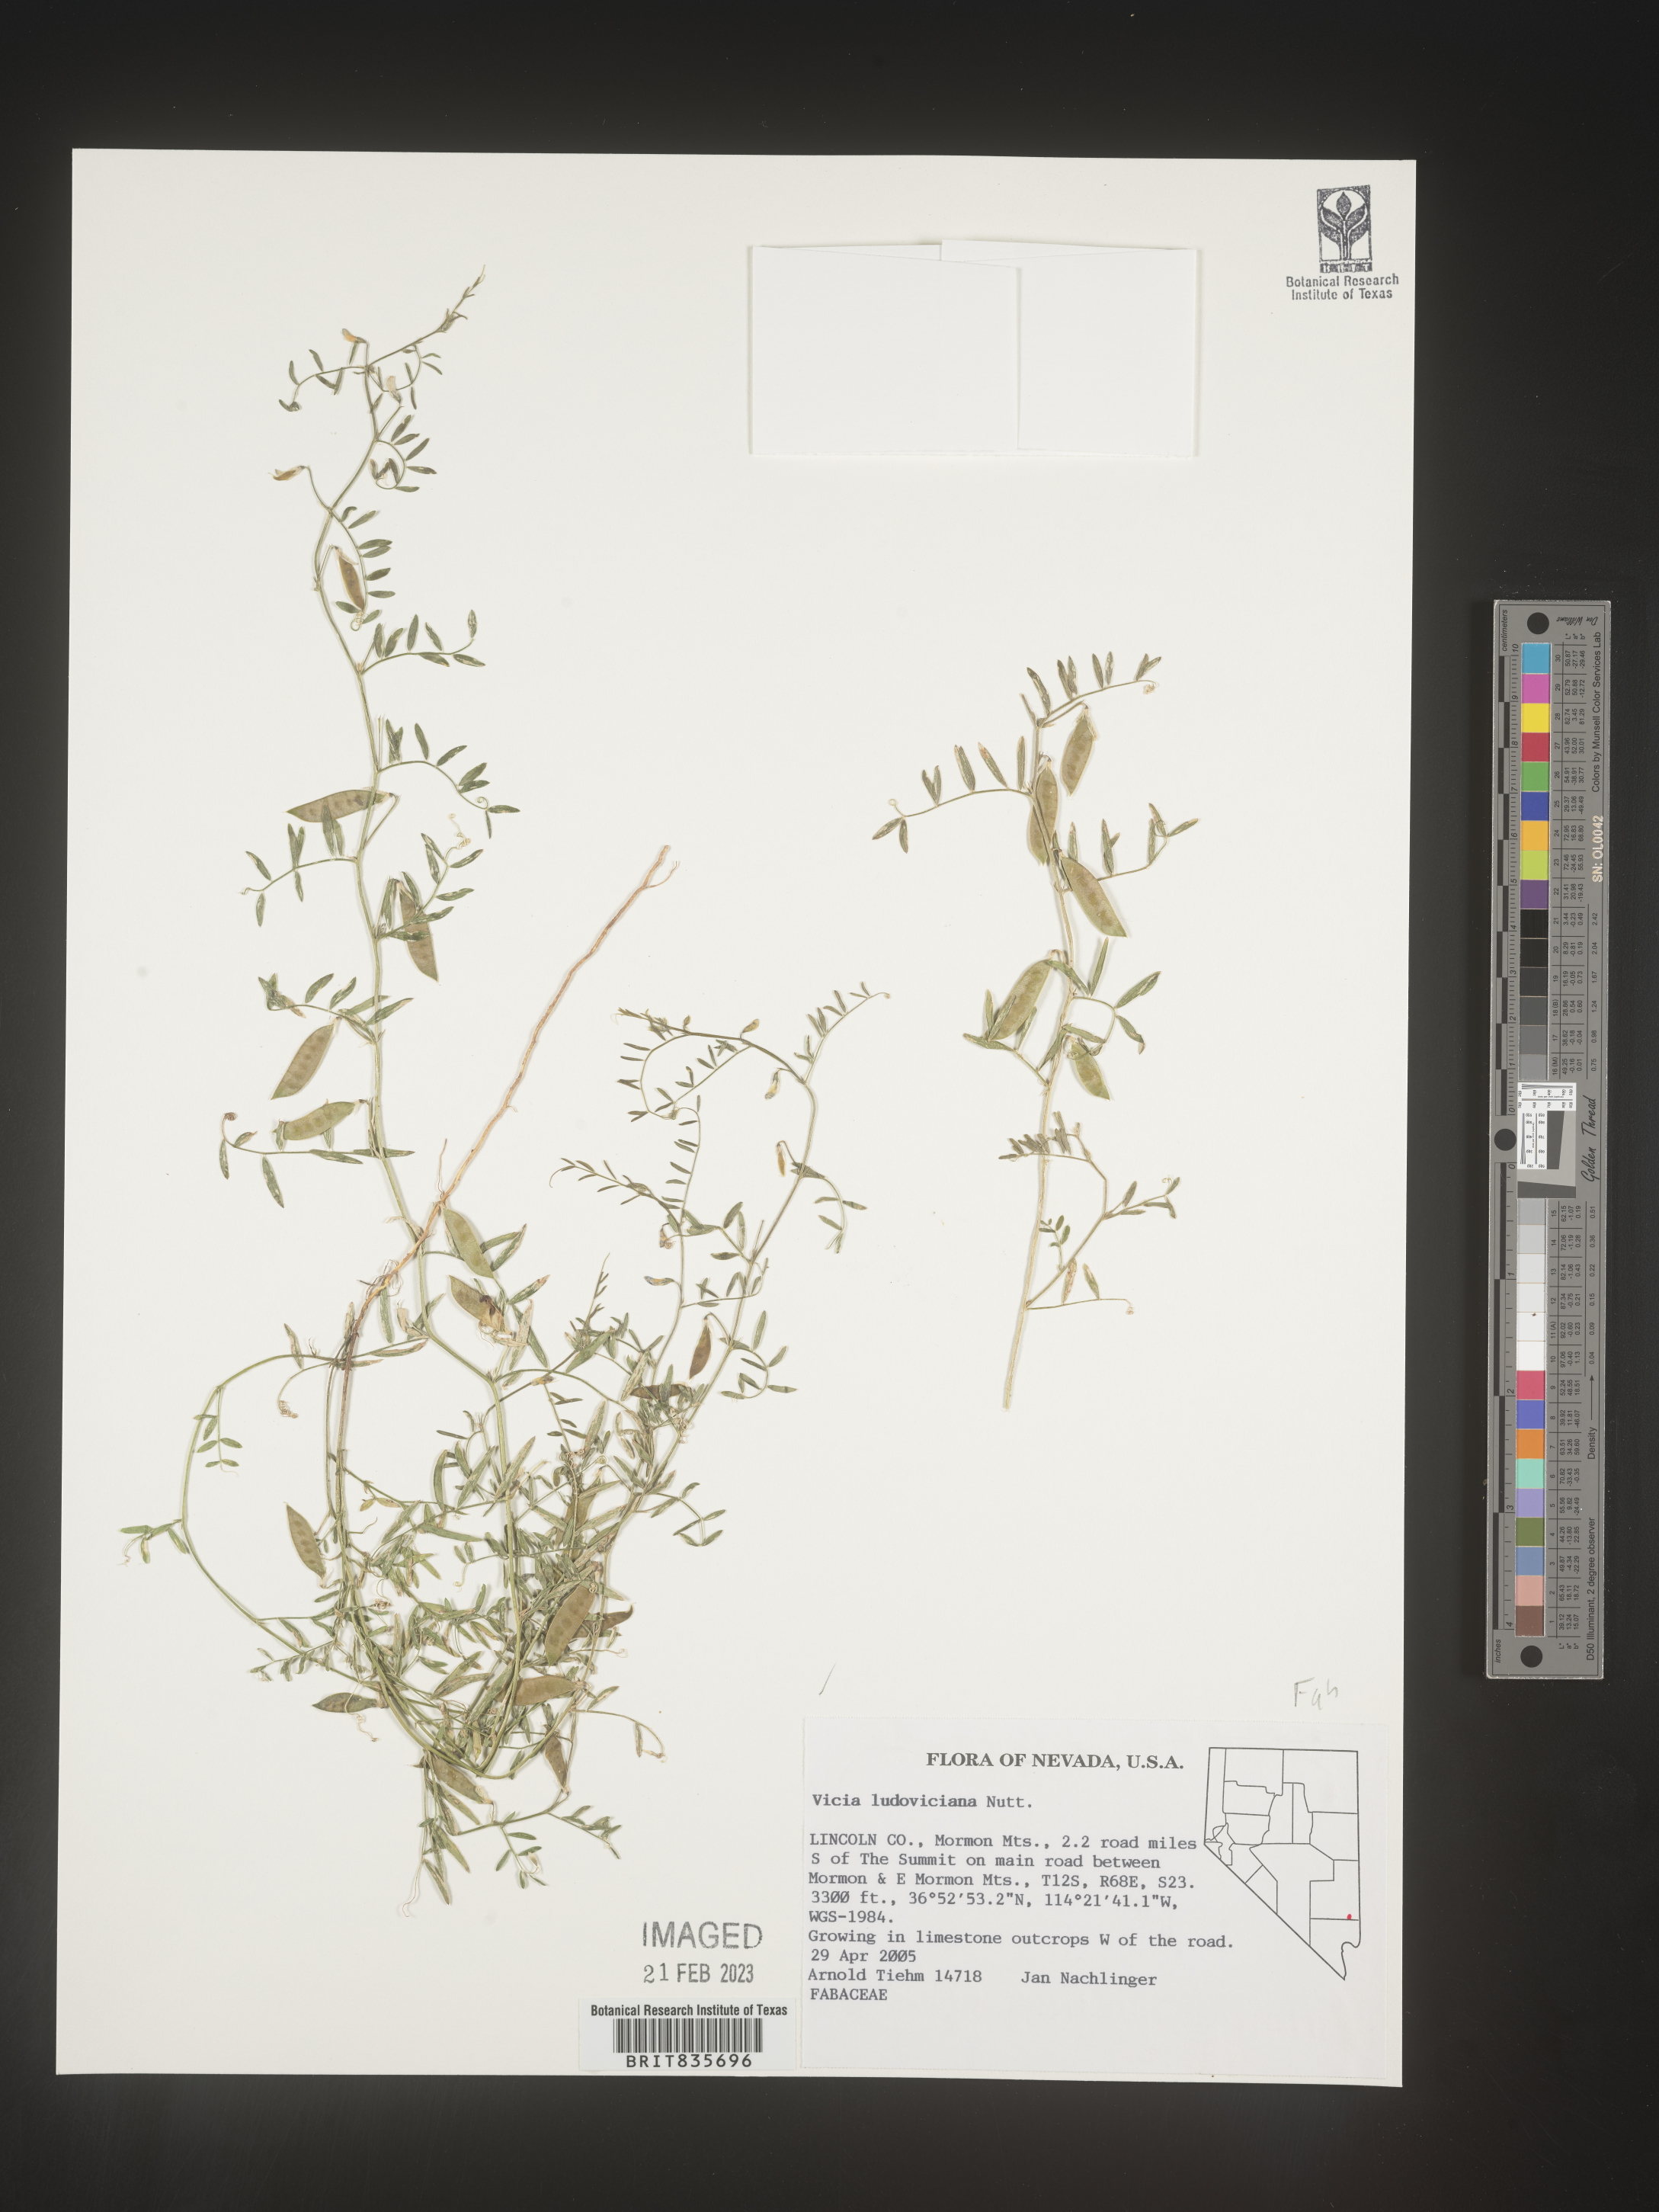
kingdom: Plantae
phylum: Tracheophyta
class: Magnoliopsida
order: Fabales
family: Fabaceae
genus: Vicia
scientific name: Vicia ludoviciana
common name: Louisiana vetch
